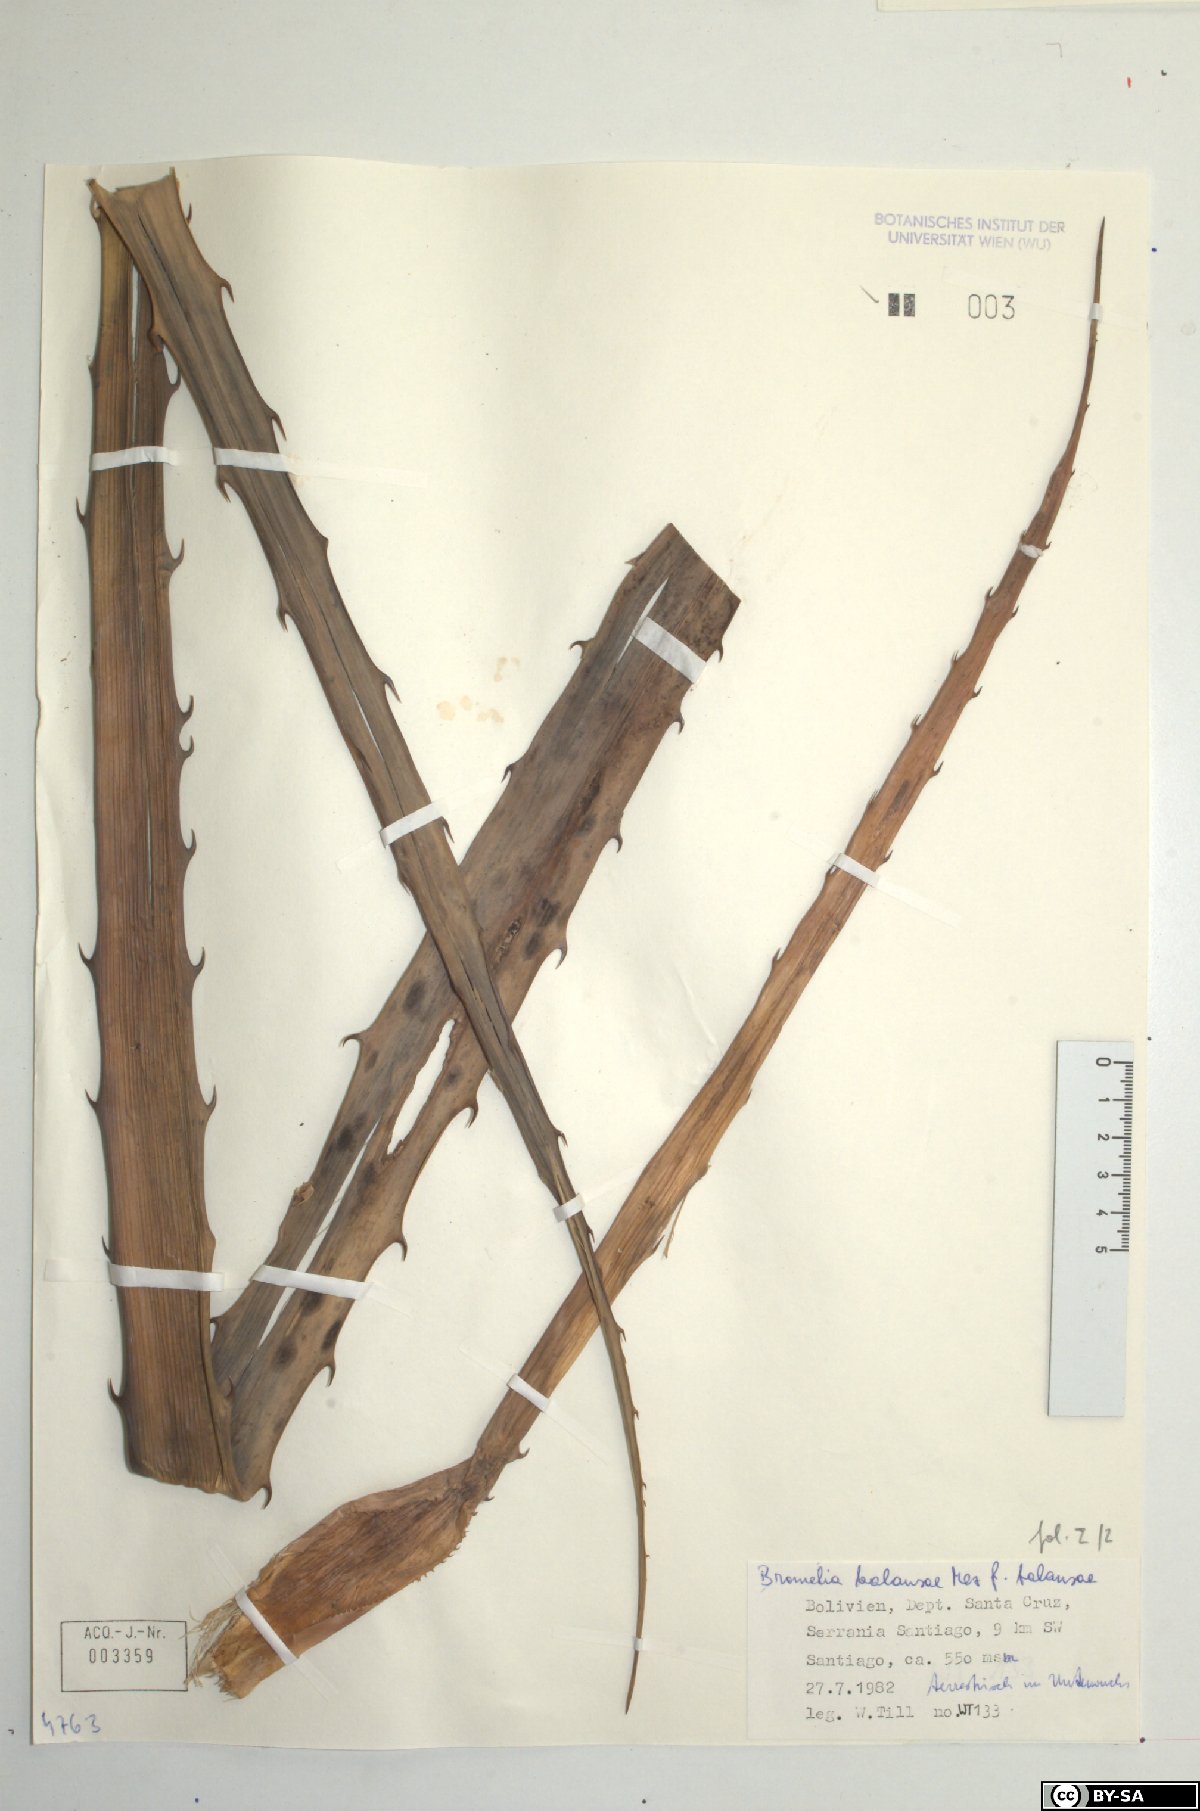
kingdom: Plantae
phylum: Tracheophyta
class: Liliopsida
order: Poales
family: Bromeliaceae
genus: Bromelia
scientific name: Bromelia balansae
